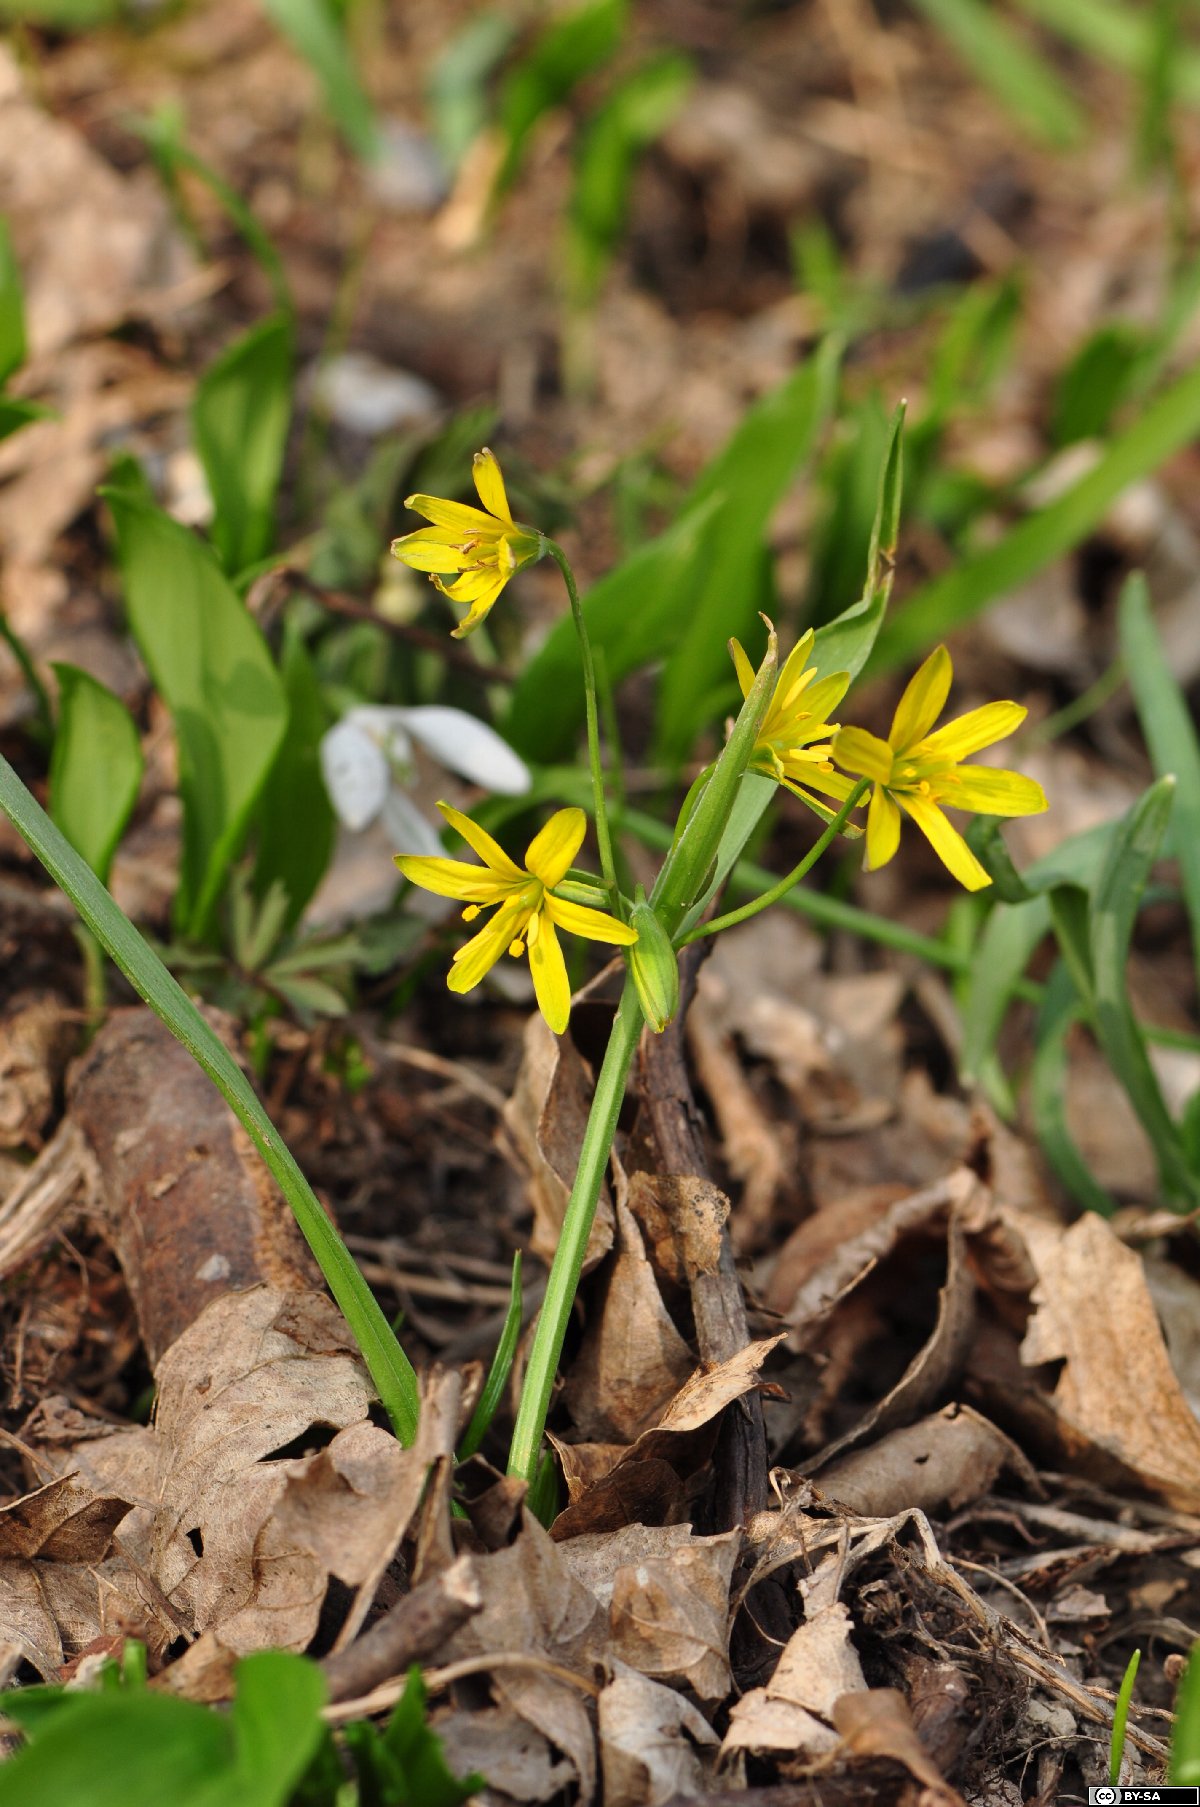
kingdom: Plantae
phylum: Tracheophyta
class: Liliopsida
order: Liliales
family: Liliaceae
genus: Gagea
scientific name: Gagea lutea
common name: Yellow star-of-bethlehem
